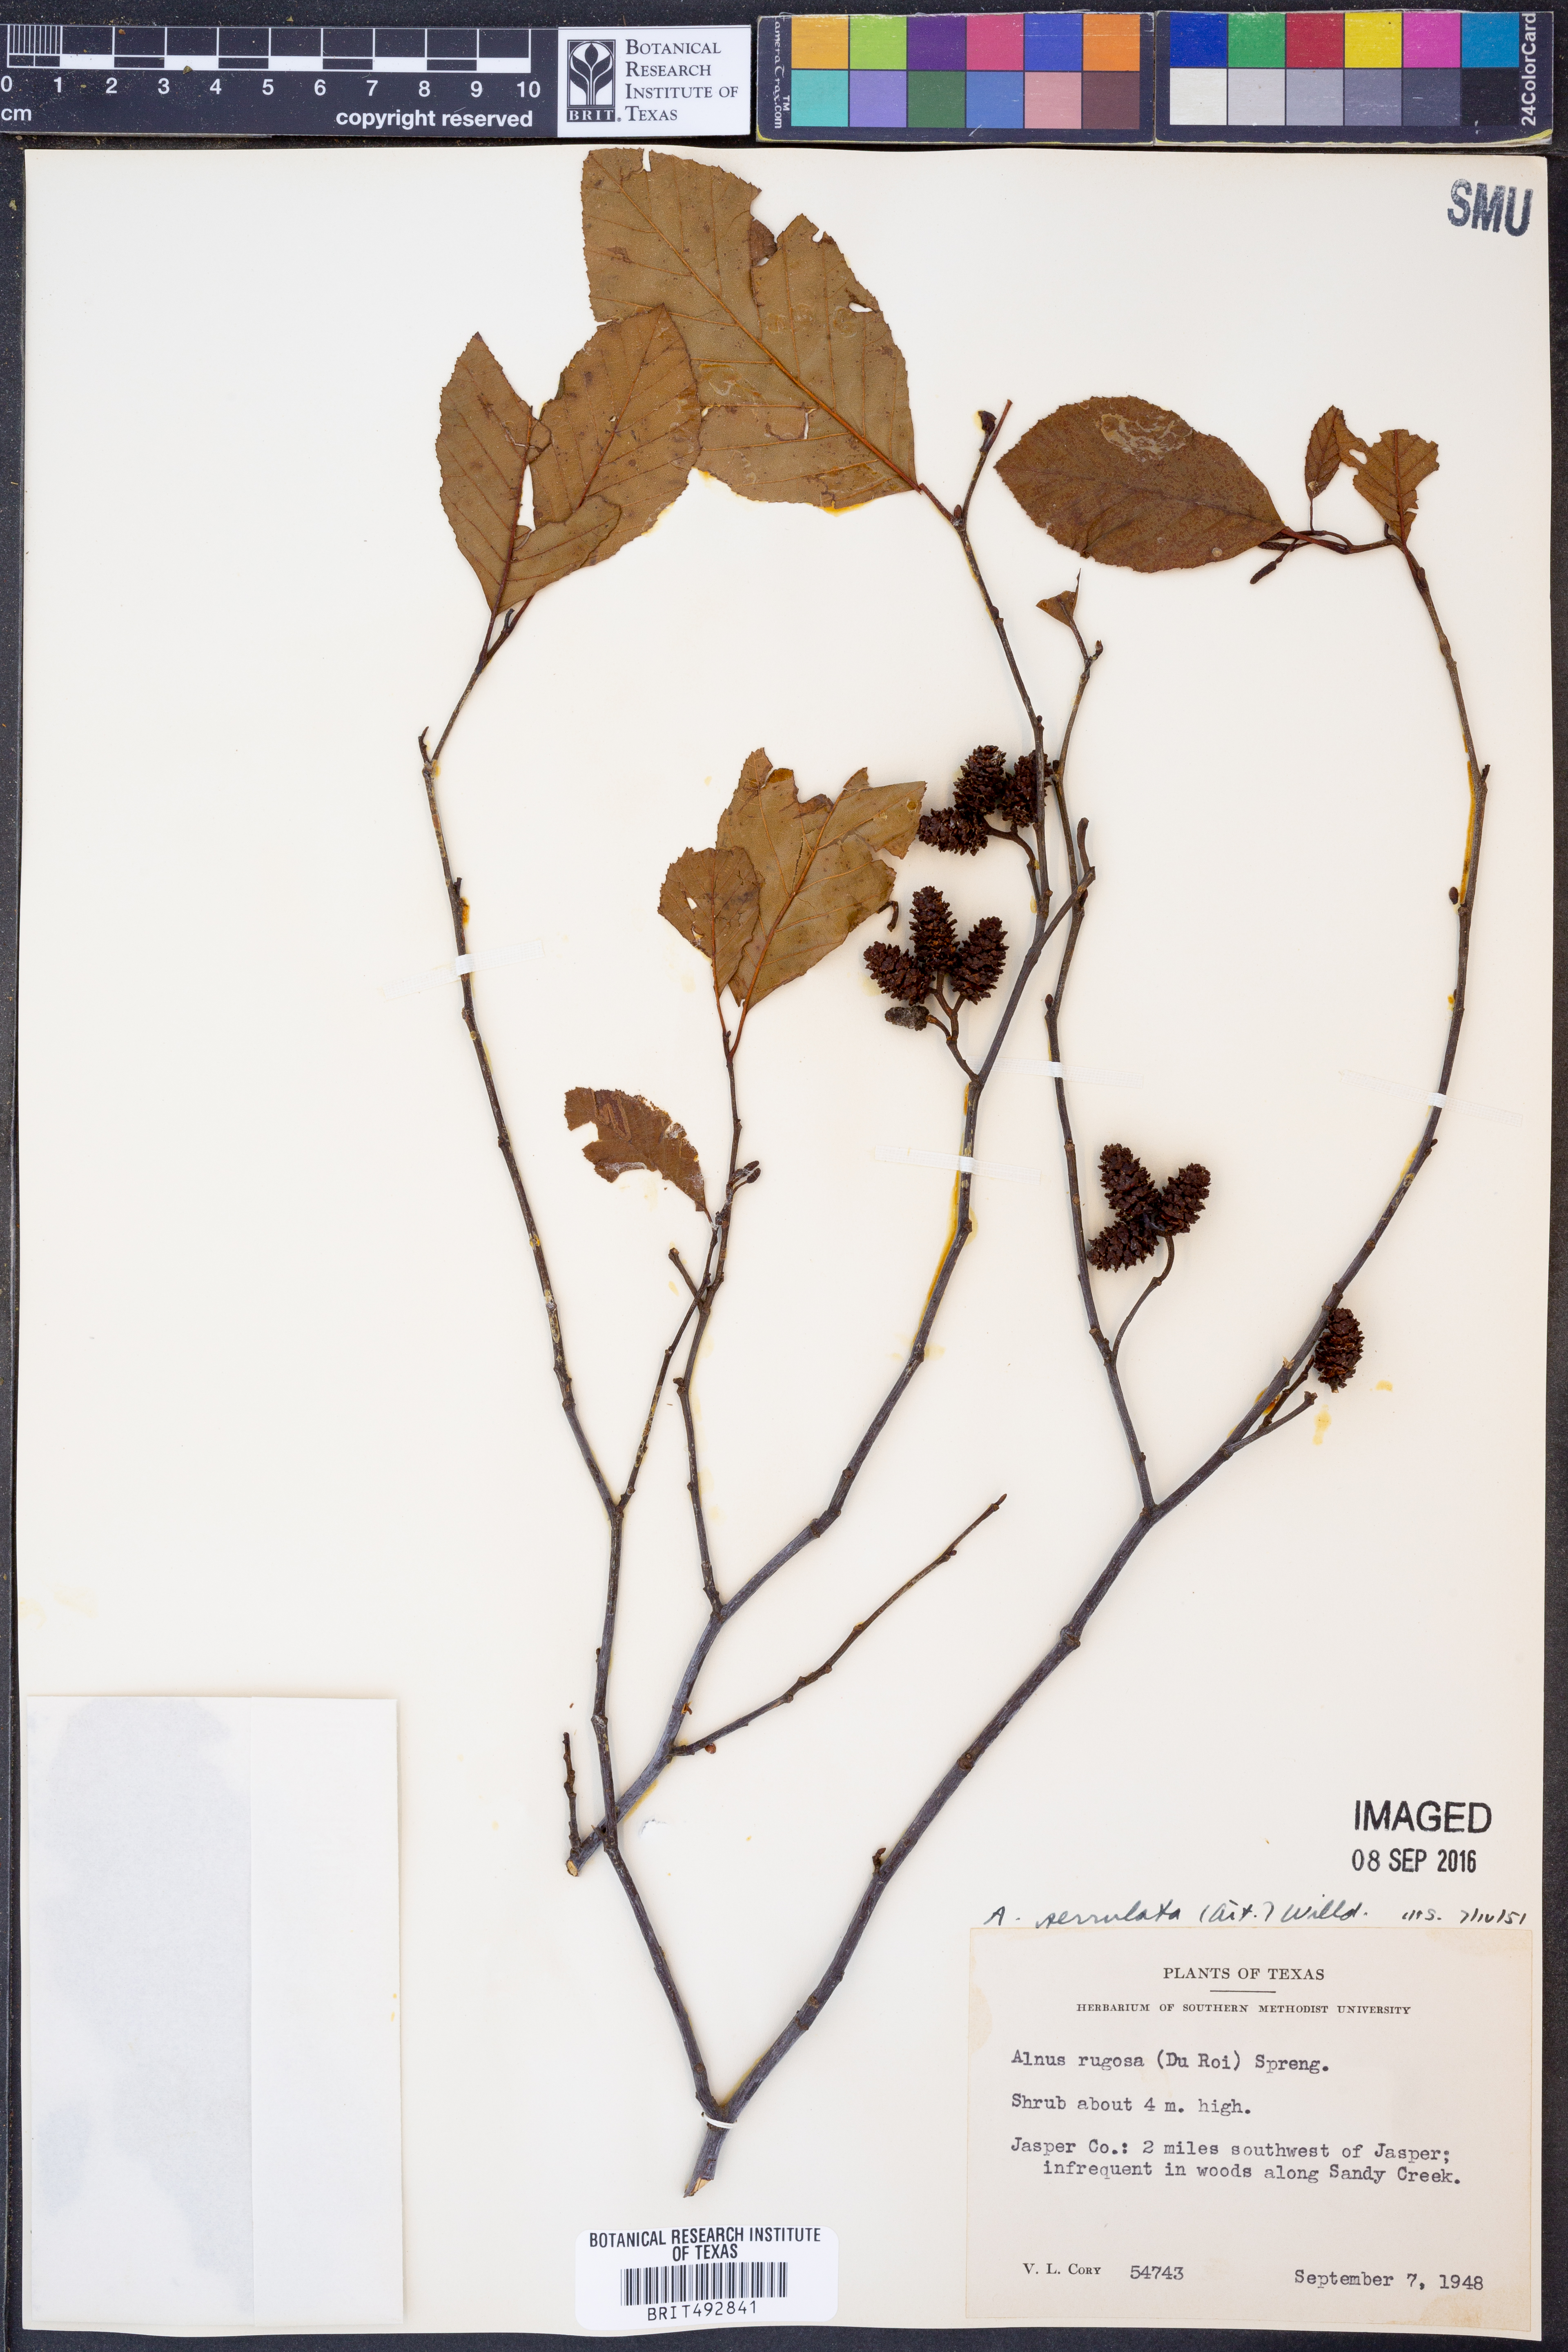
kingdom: Plantae
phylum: Tracheophyta
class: Magnoliopsida
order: Fagales
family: Betulaceae
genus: Alnus
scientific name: Alnus serrulata
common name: Hazel alder
